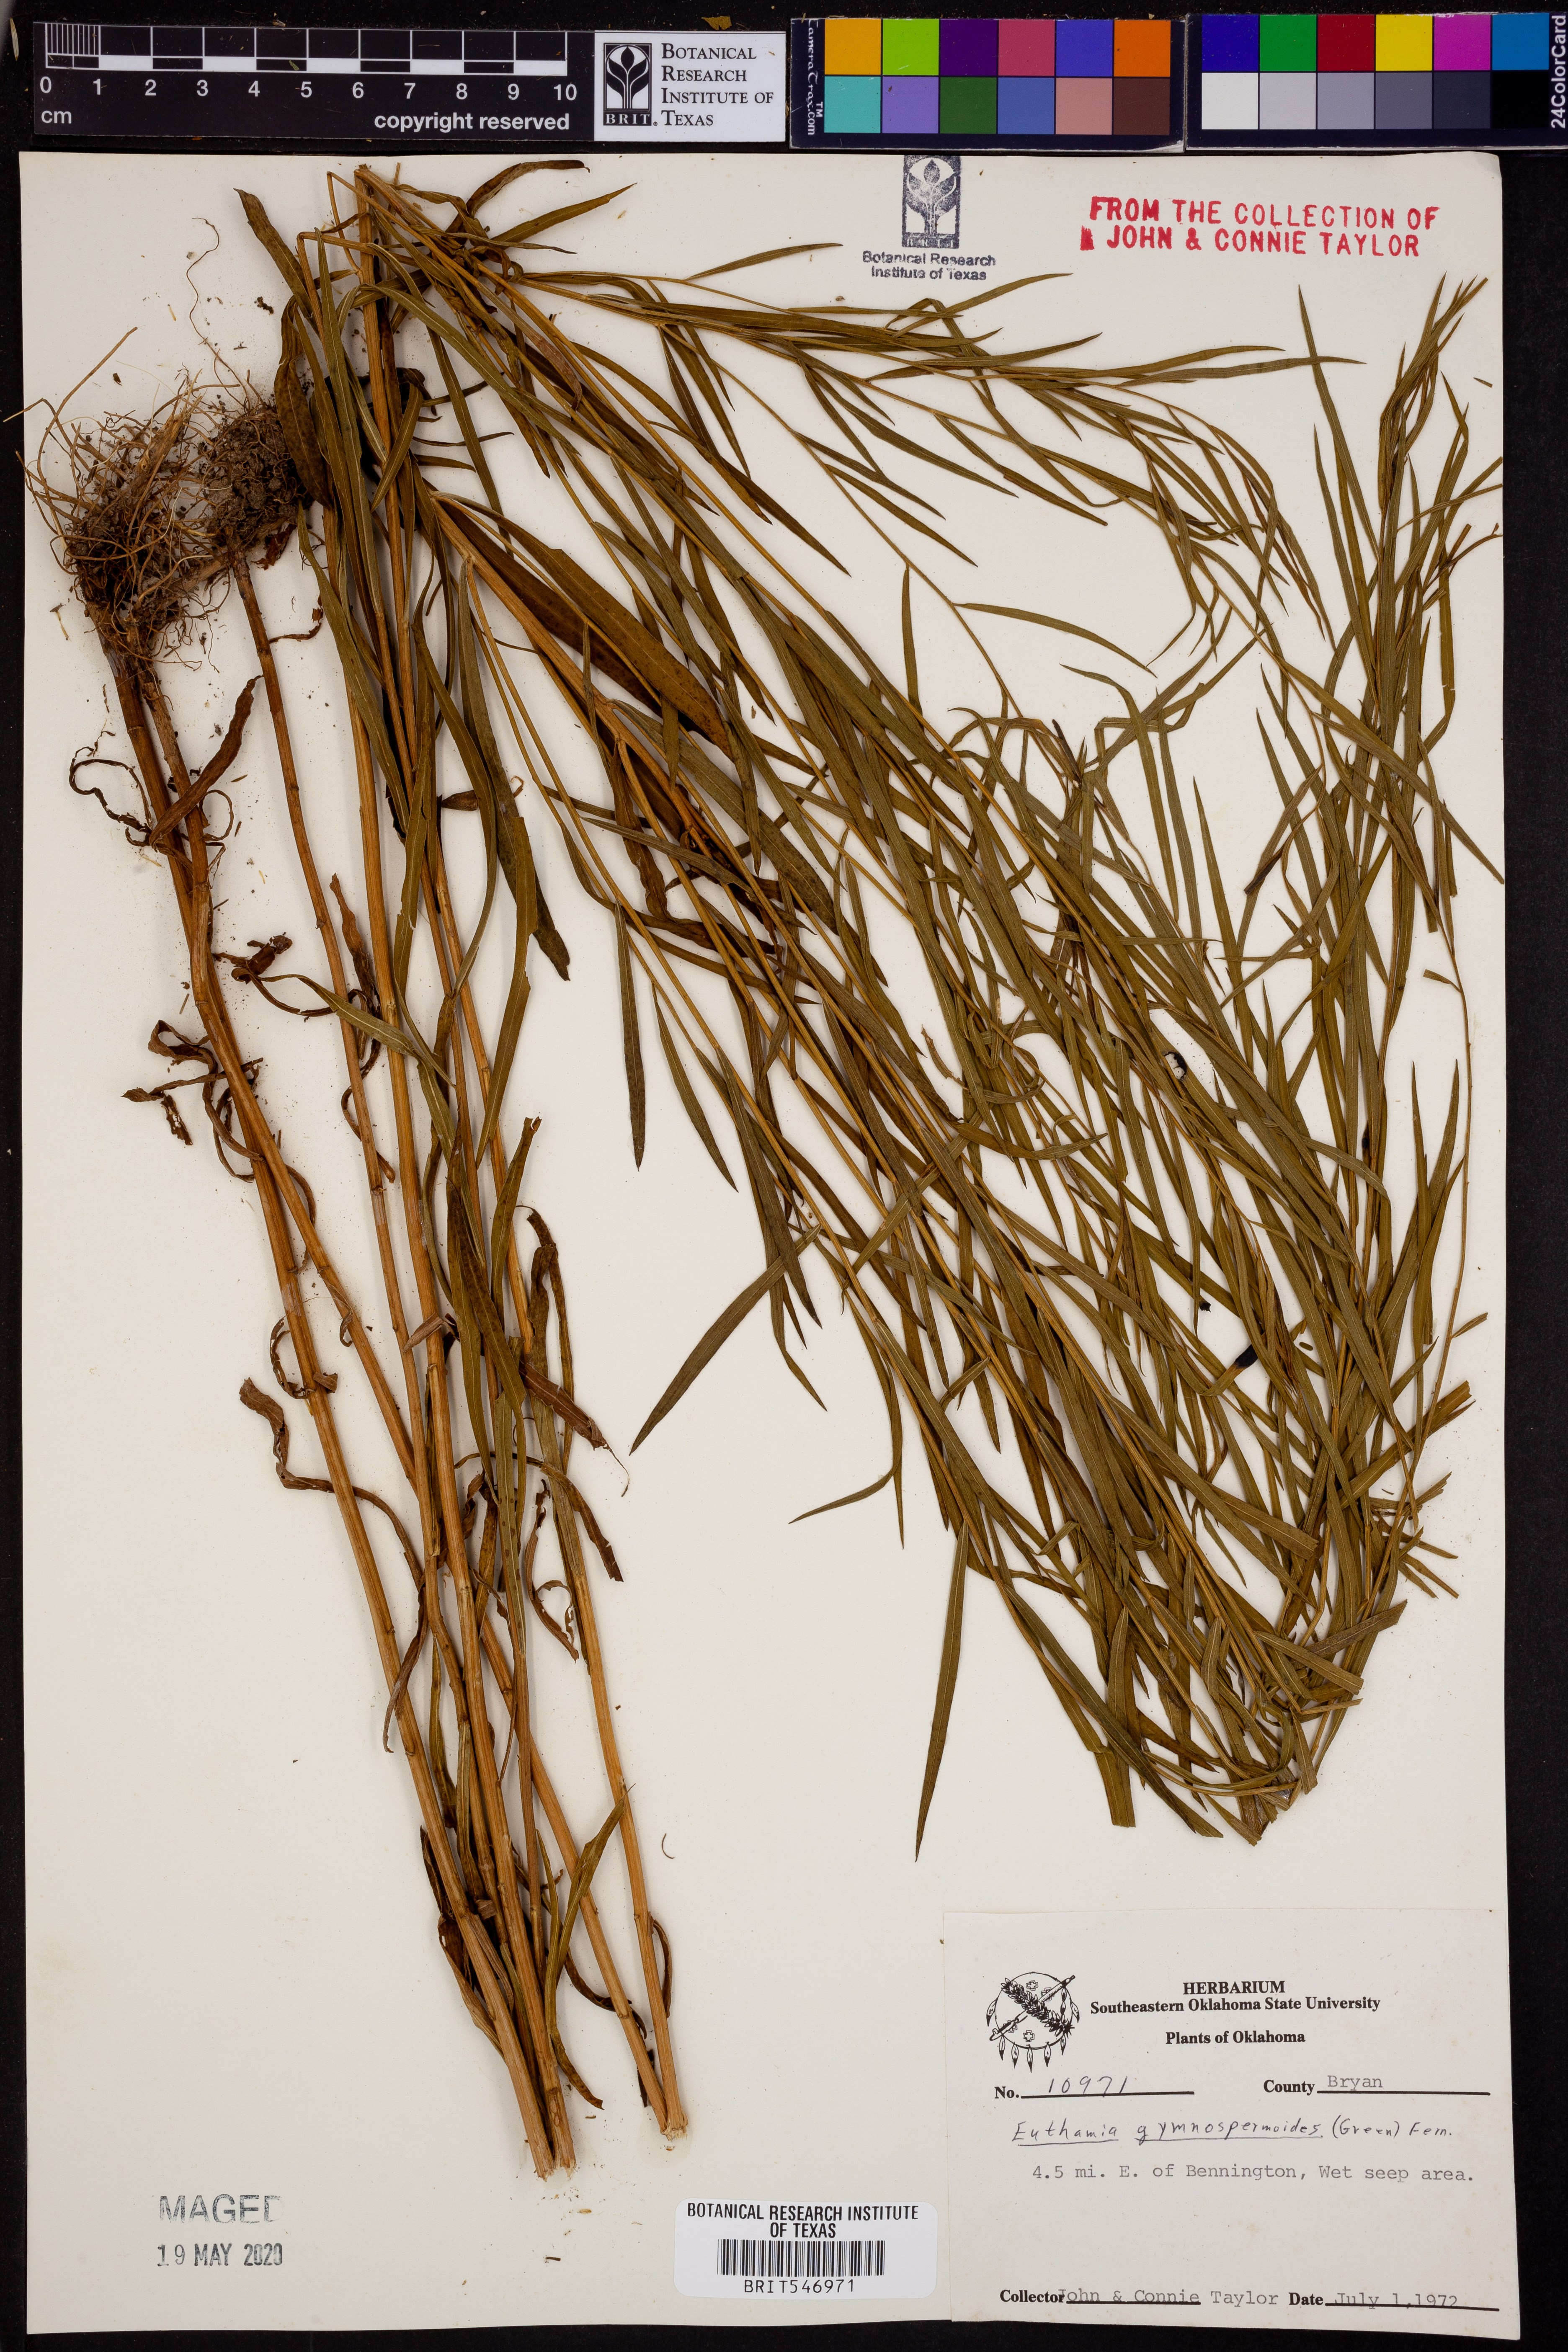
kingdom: Plantae
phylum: Tracheophyta
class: Magnoliopsida
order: Asterales
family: Asteraceae
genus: Euthamia
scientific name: Euthamia gymnospermoides
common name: Great plains goldentop
